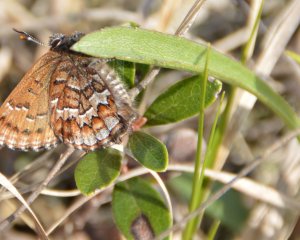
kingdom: Animalia
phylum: Arthropoda
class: Insecta
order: Lepidoptera
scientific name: Lepidoptera
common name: Butterflies
